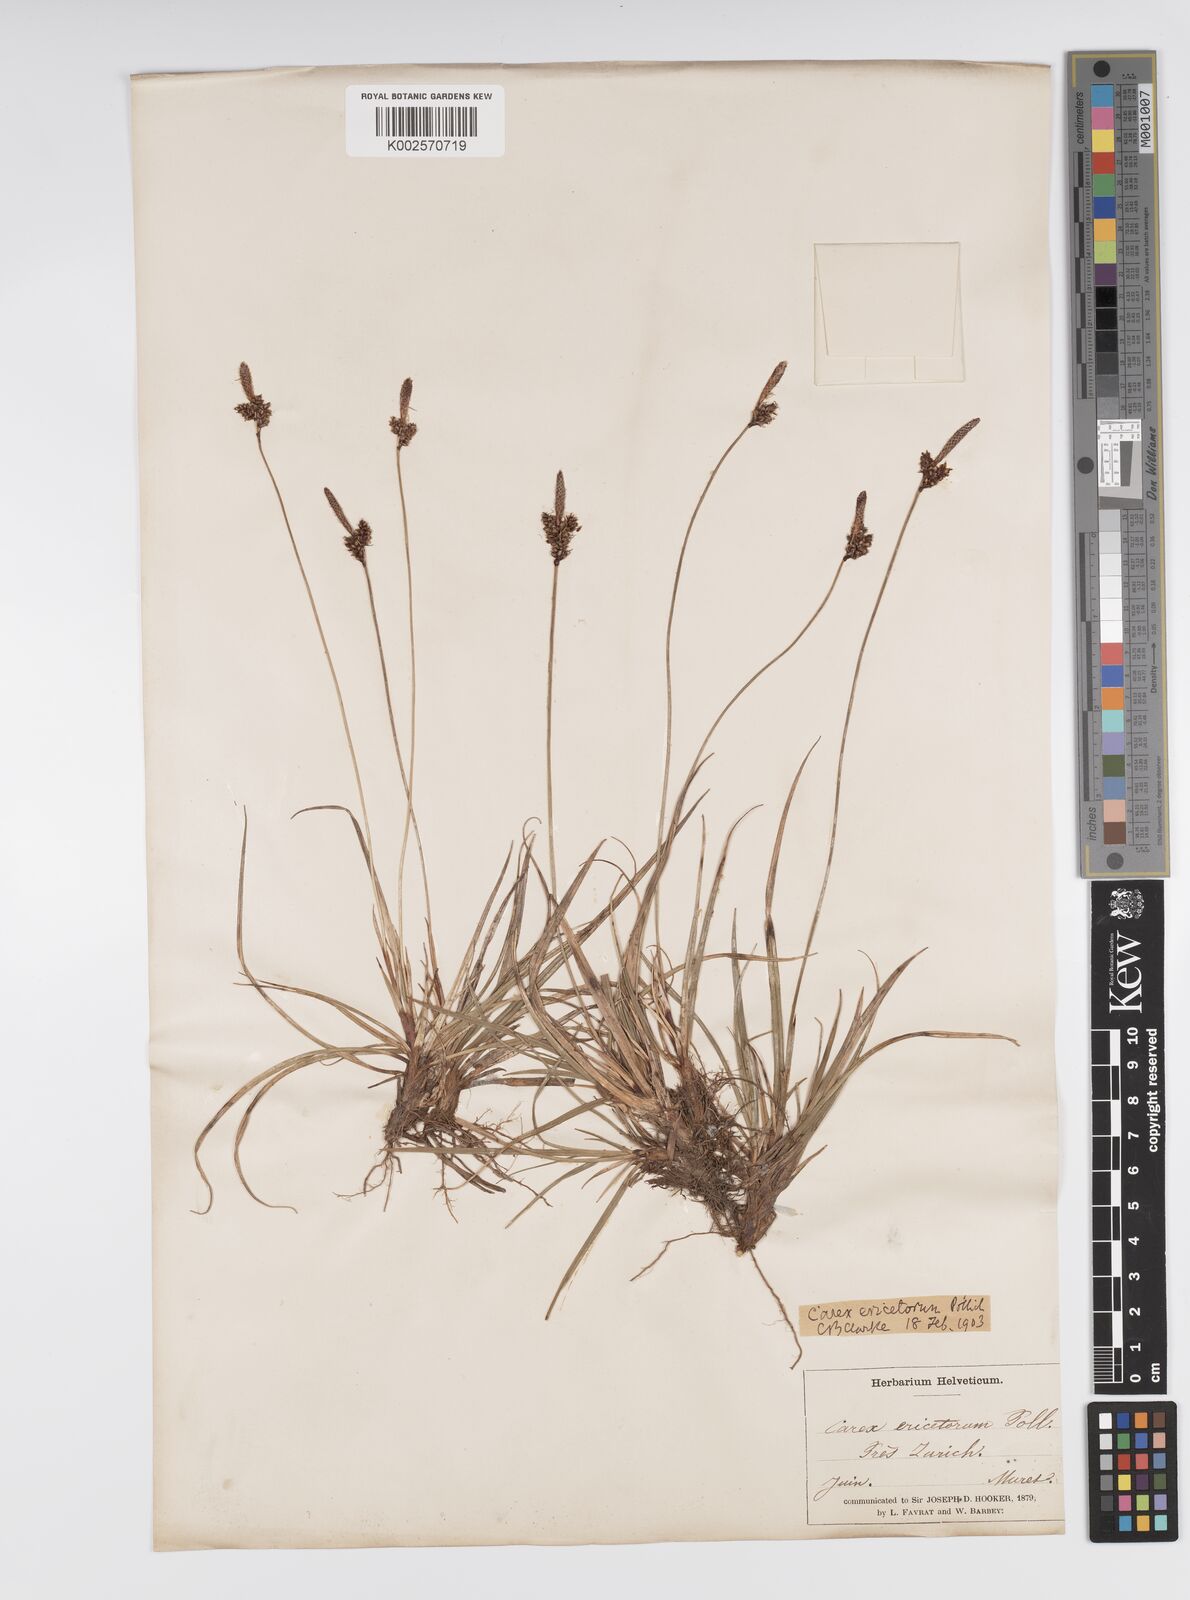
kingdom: Plantae
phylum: Tracheophyta
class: Liliopsida
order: Poales
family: Cyperaceae
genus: Carex
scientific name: Carex ericetorum
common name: Rare spring-sedge
